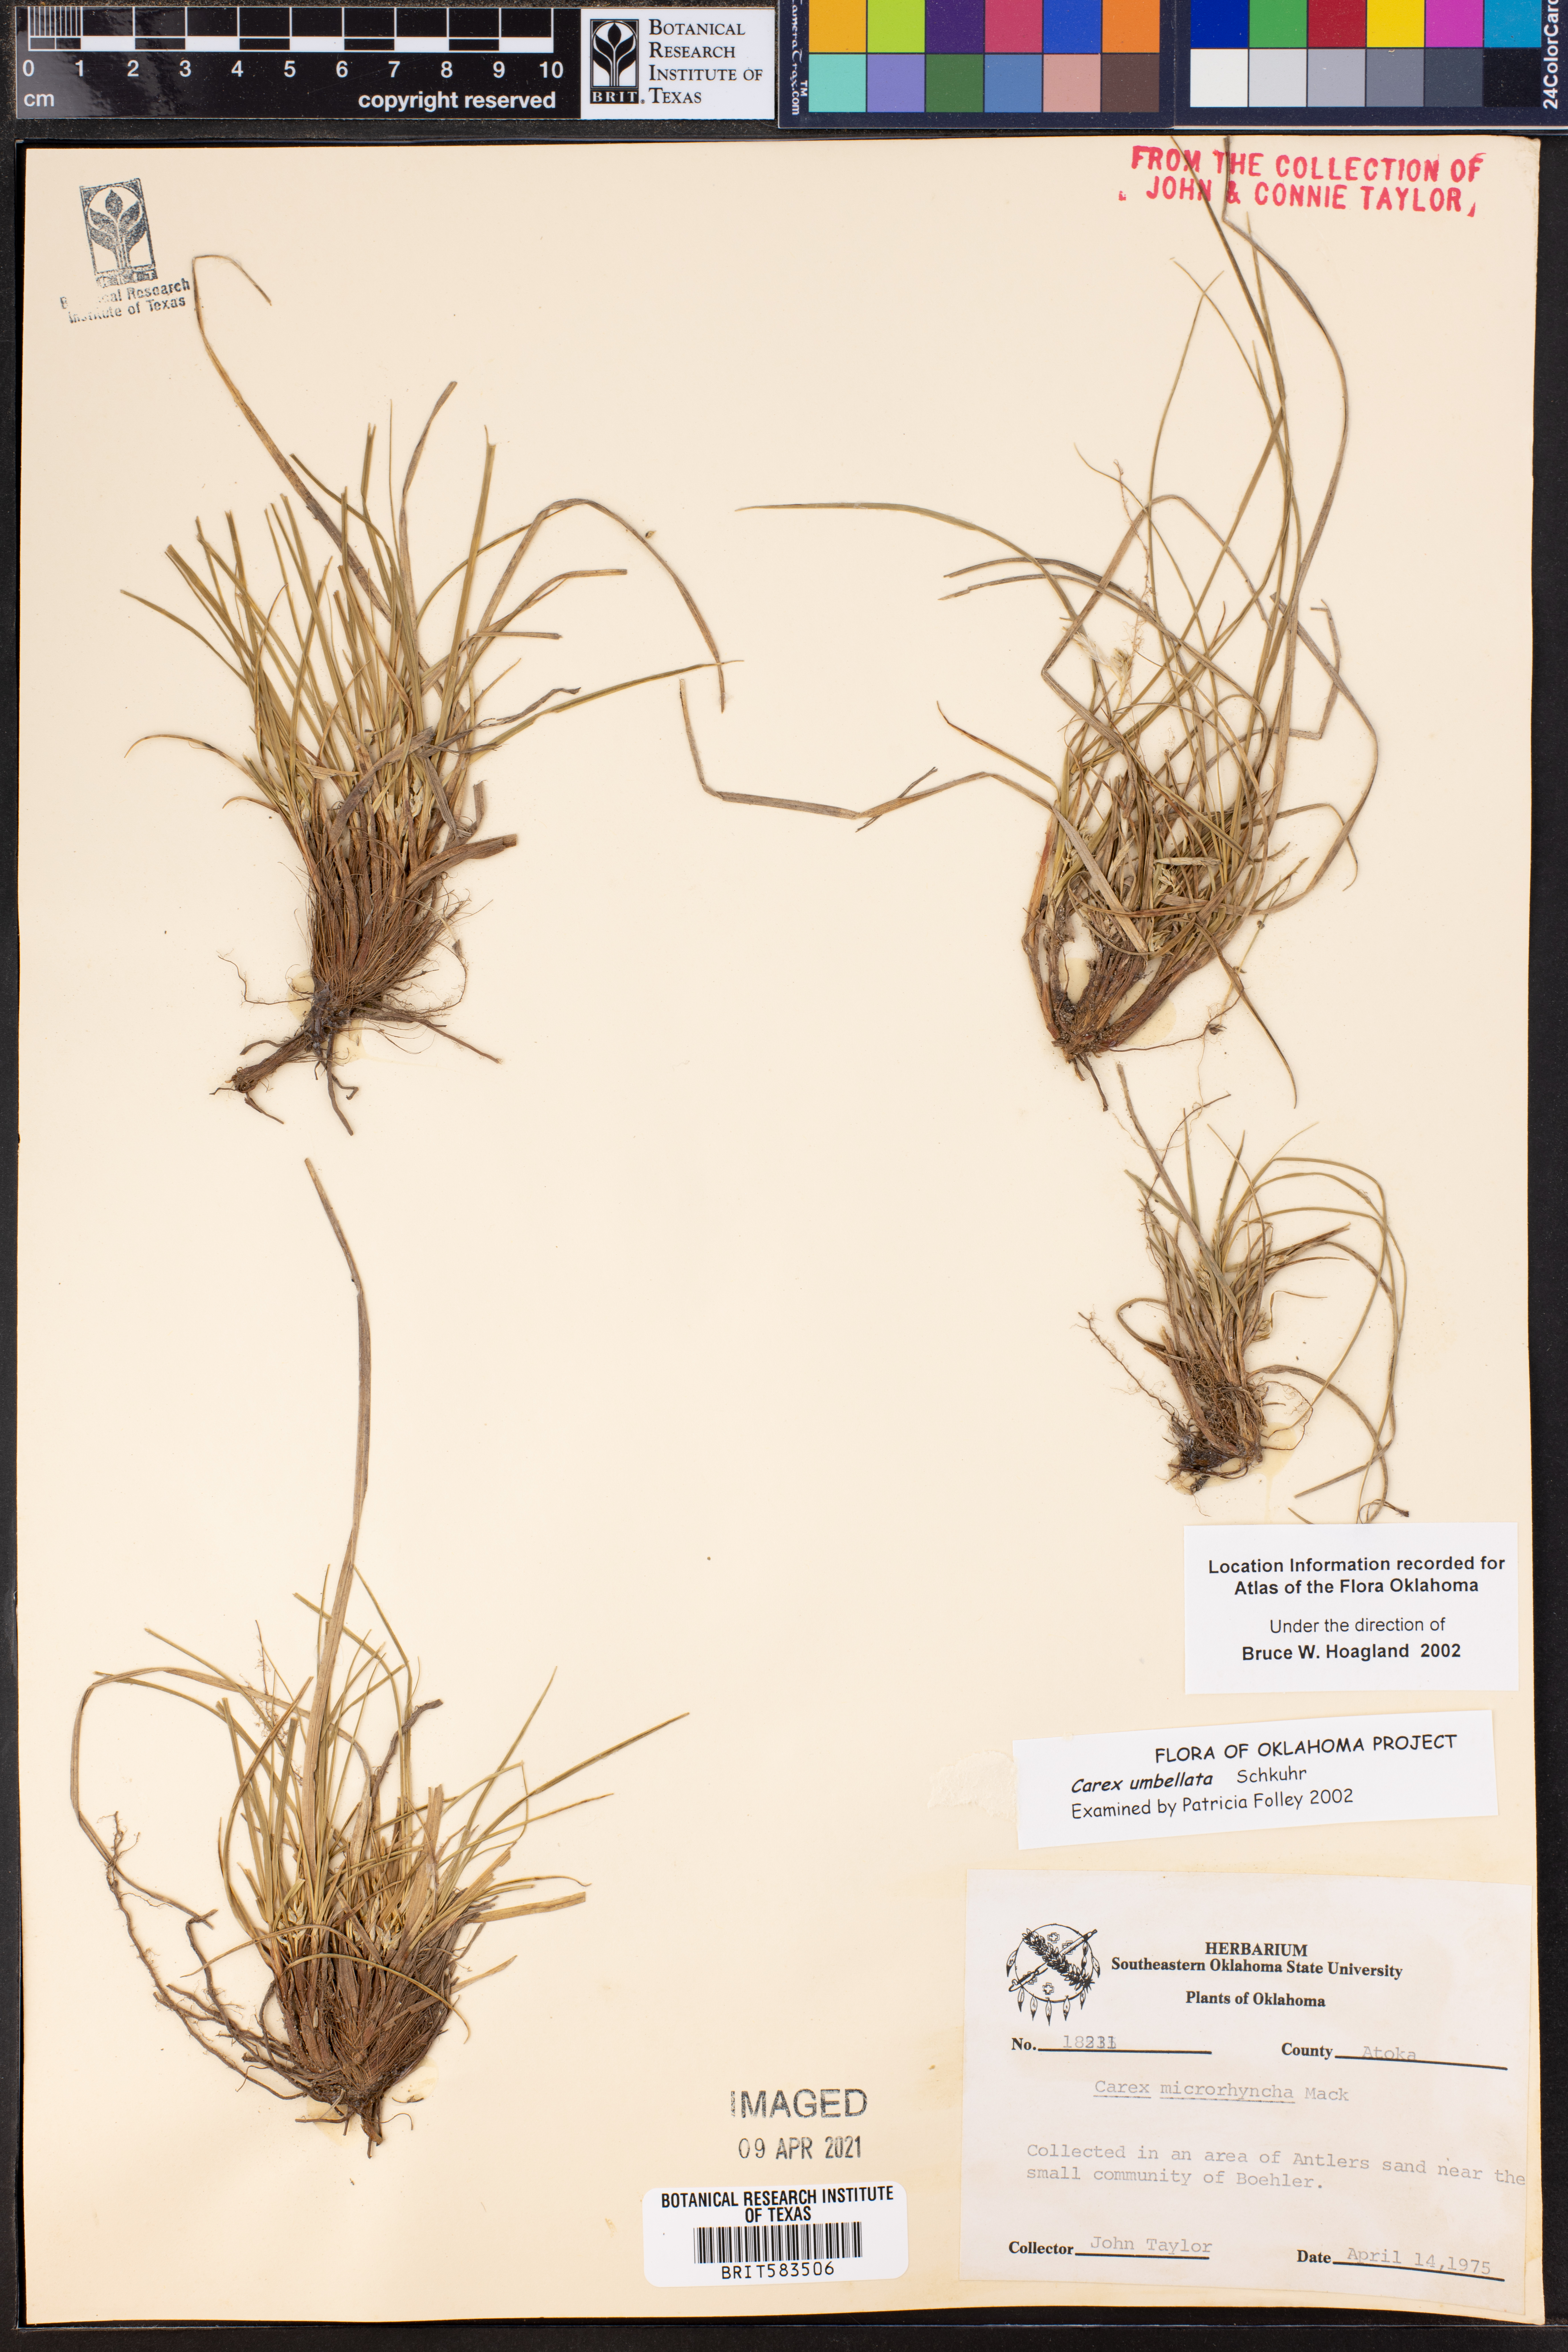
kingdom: Plantae
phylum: Tracheophyta
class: Liliopsida
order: Poales
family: Cyperaceae
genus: Carex
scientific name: Carex umbellata
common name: Early oak sedge
